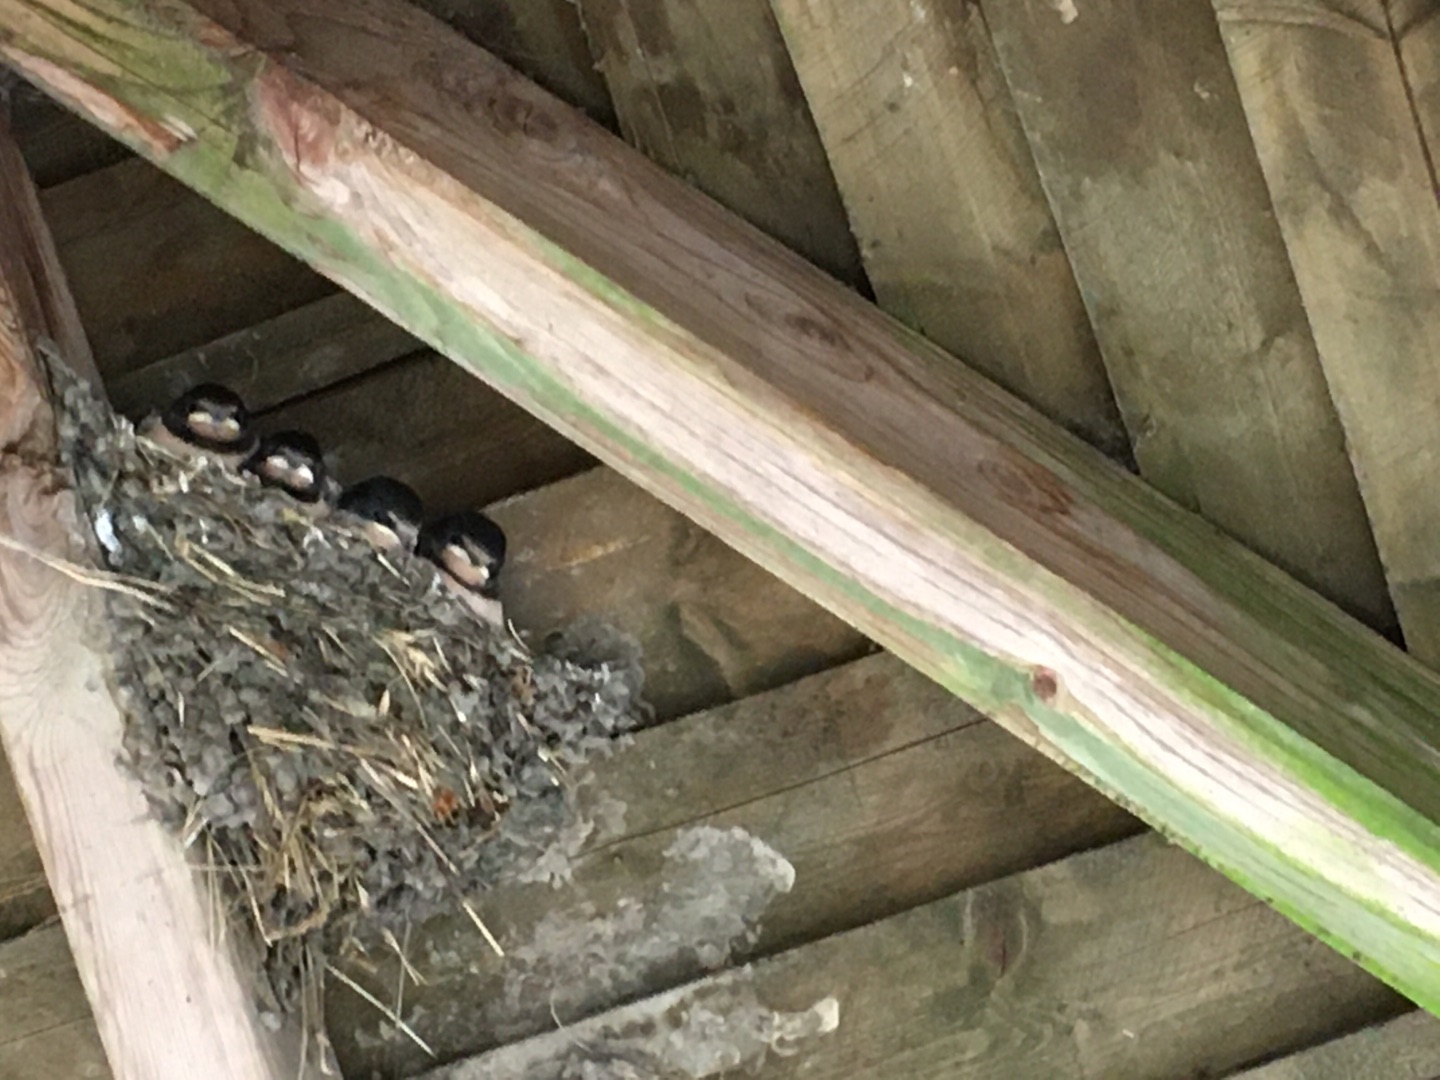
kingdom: Animalia
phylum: Chordata
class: Aves
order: Passeriformes
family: Hirundinidae
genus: Hirundo
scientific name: Hirundo rustica
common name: Landsvale
